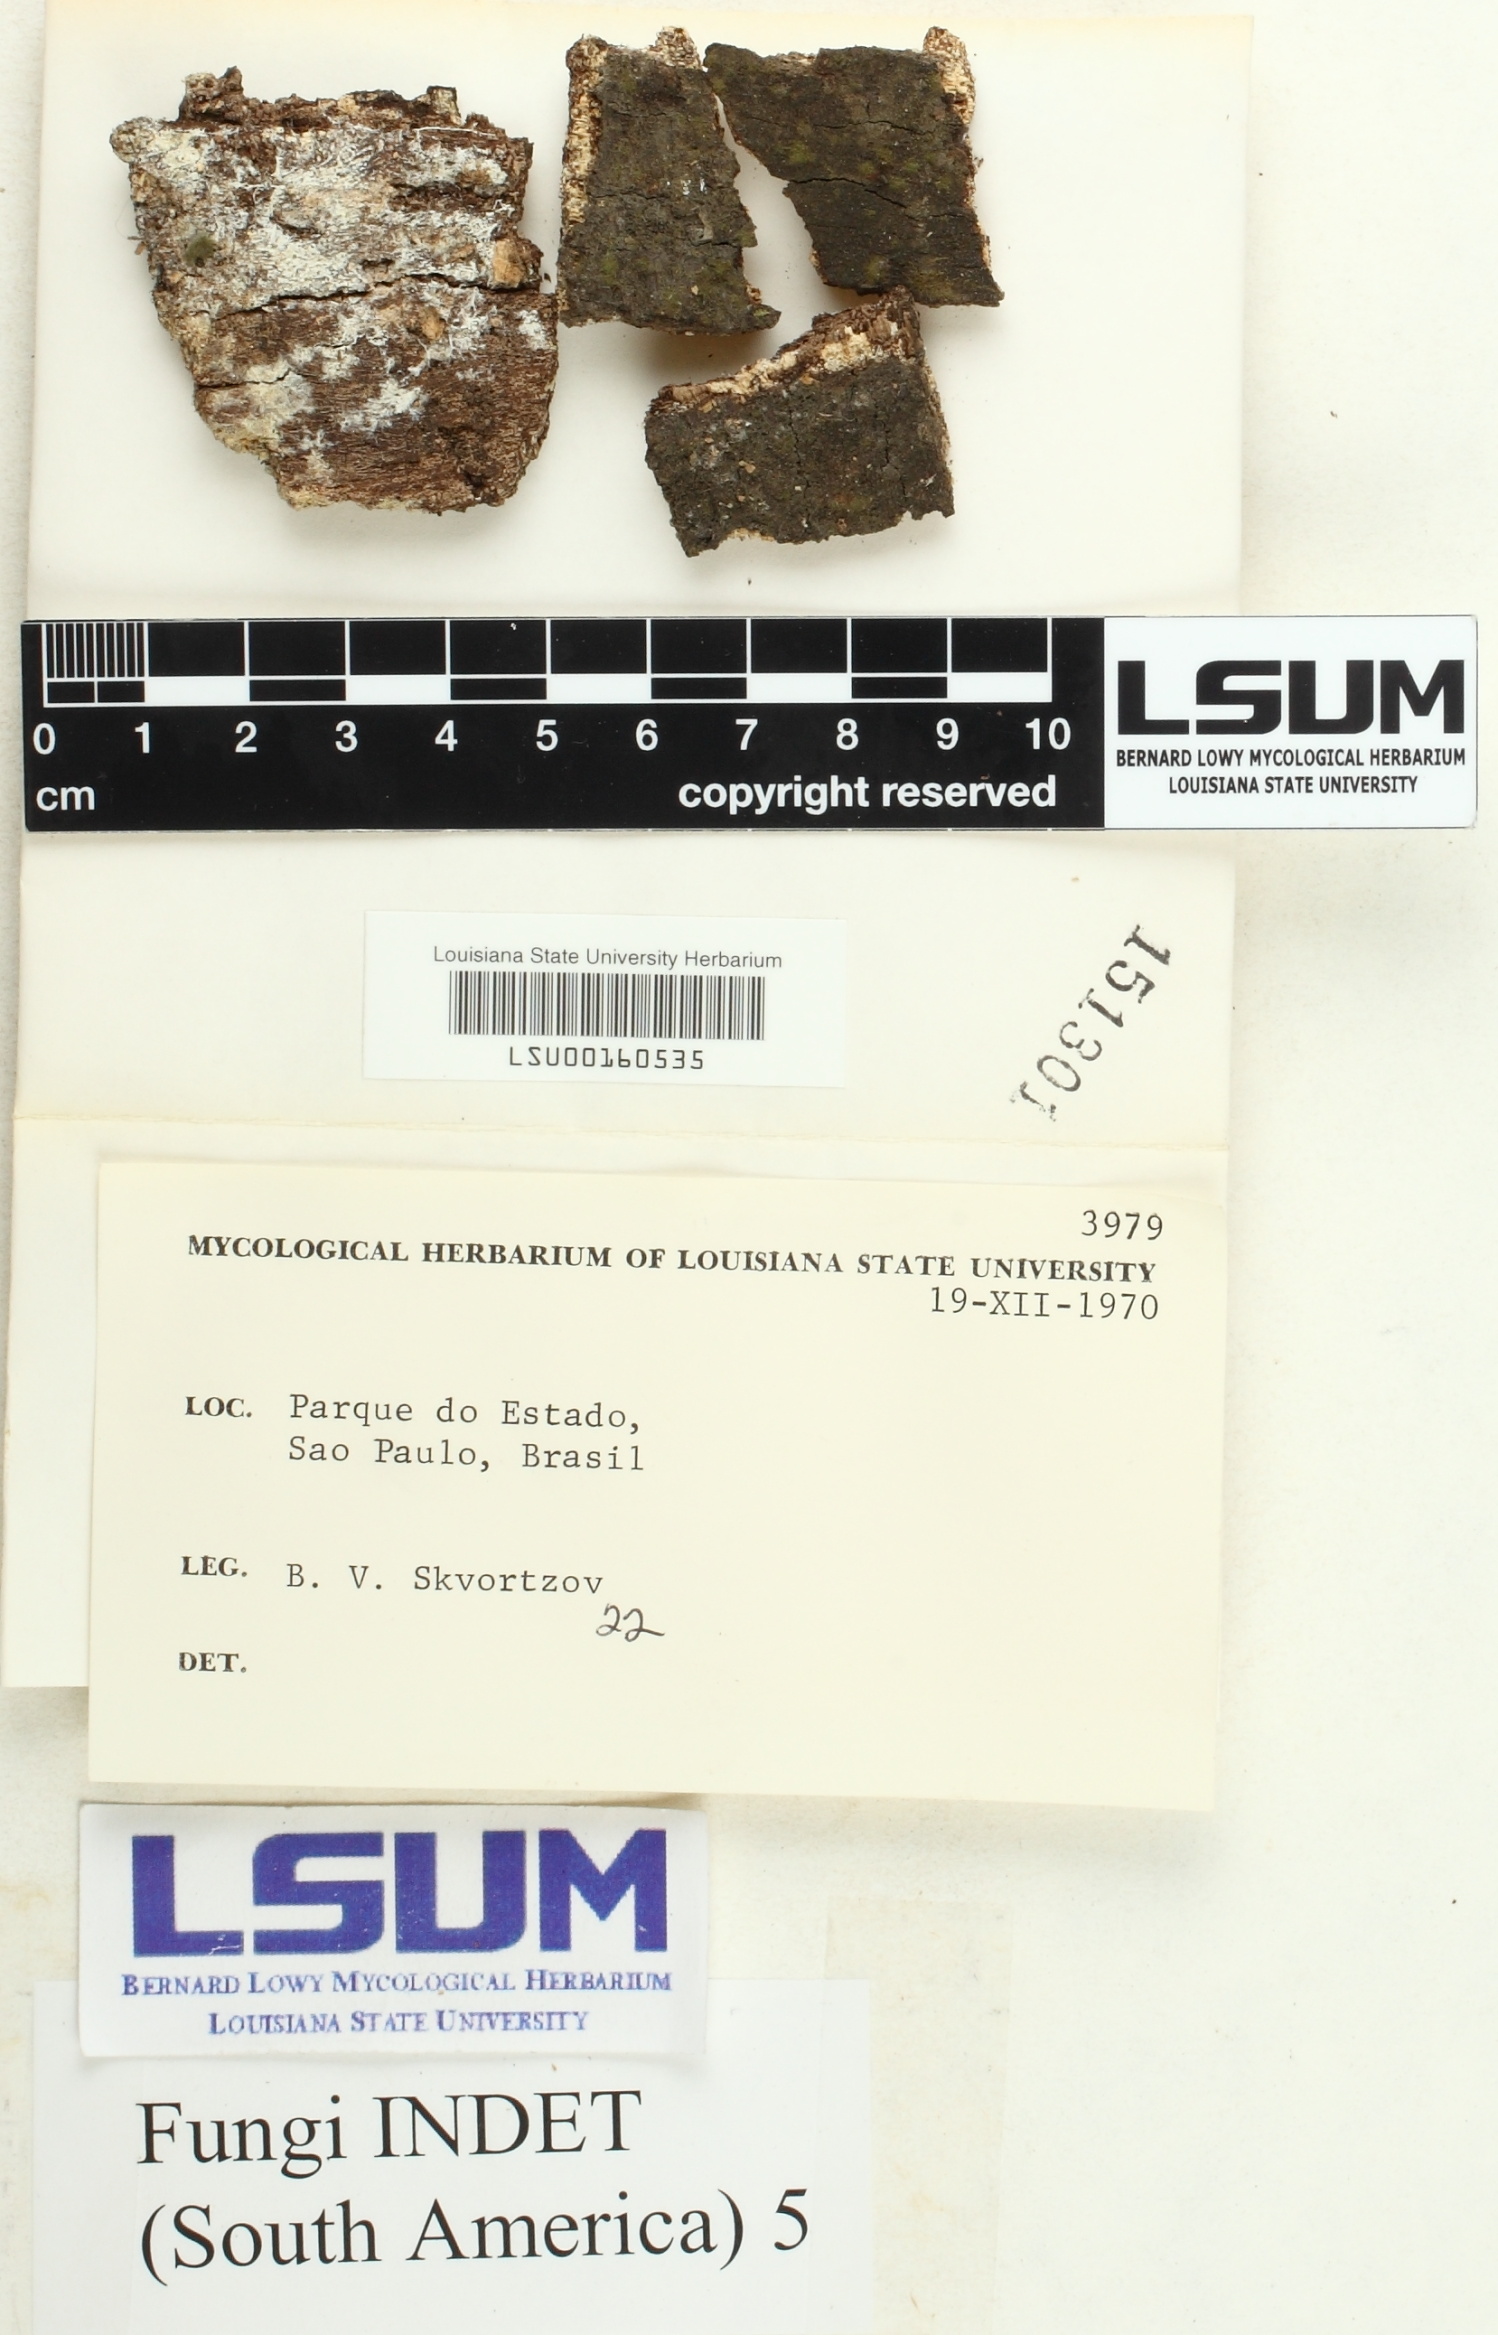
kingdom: Fungi
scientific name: Fungi
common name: Fungi
